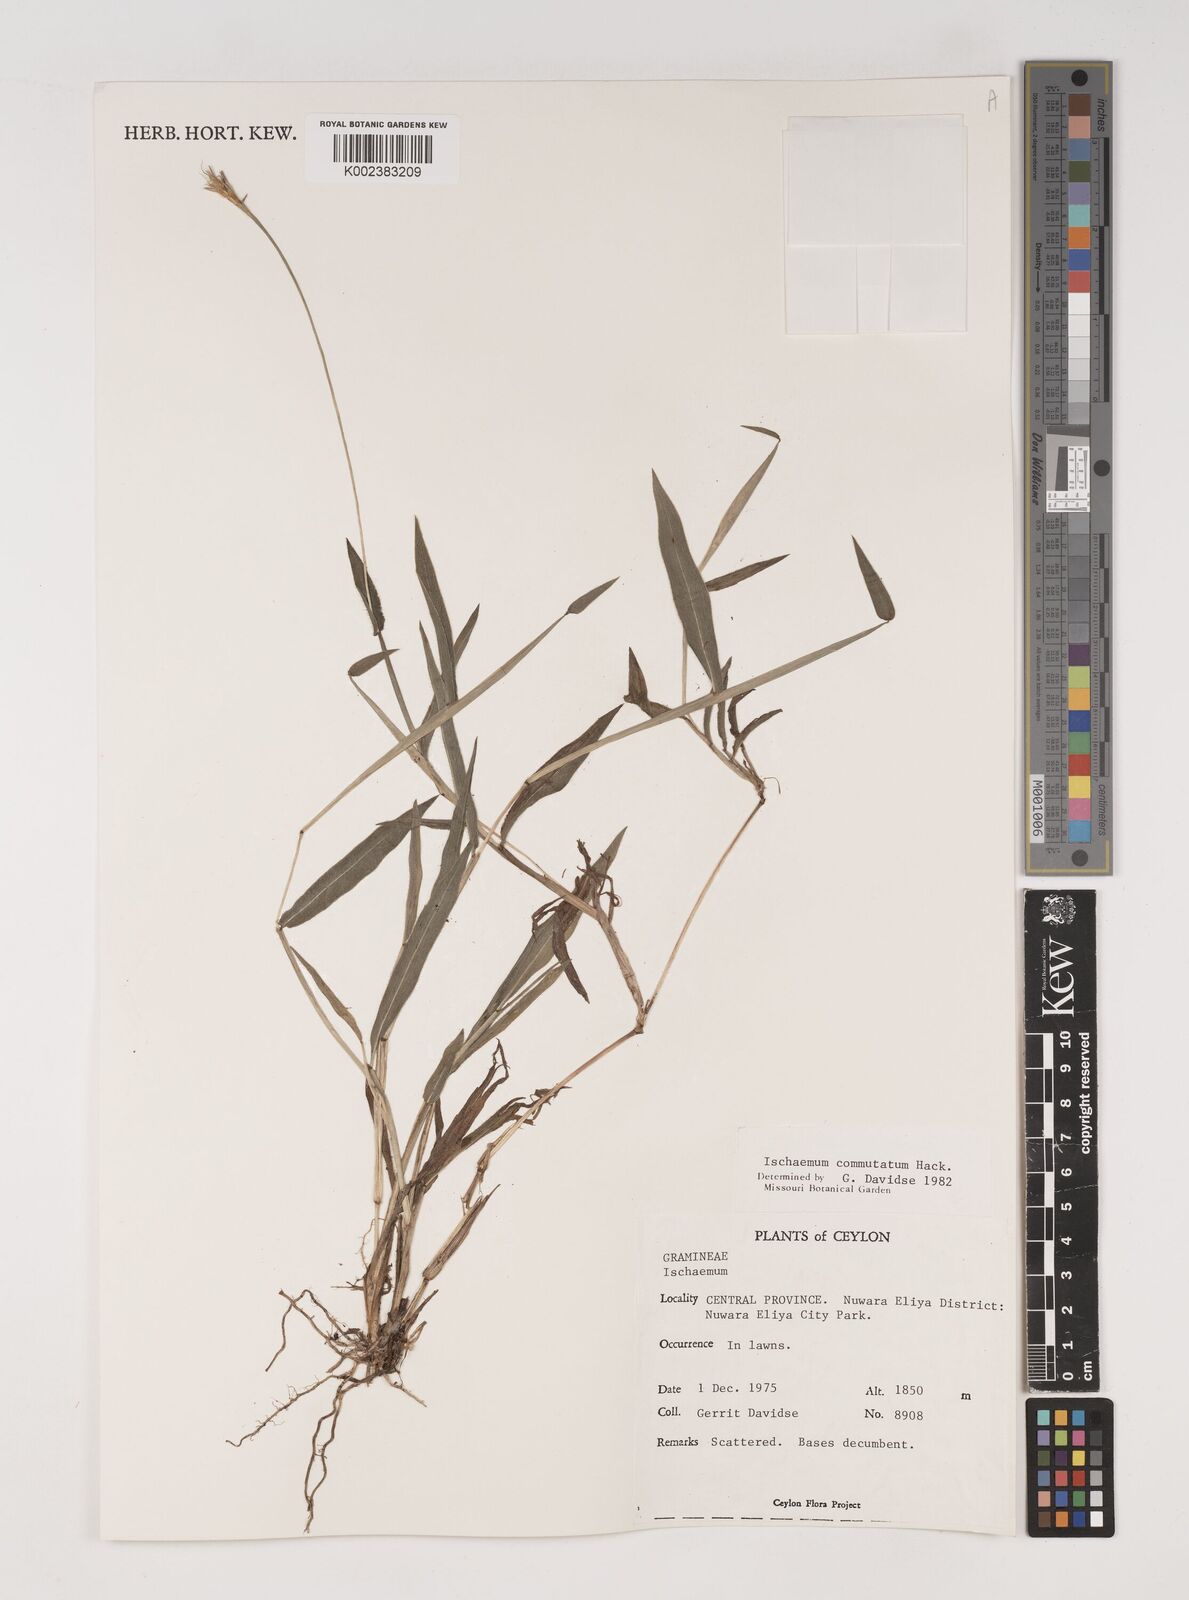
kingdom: Plantae
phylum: Tracheophyta
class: Liliopsida
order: Poales
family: Poaceae
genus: Ischaemum
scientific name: Ischaemum commutatum
